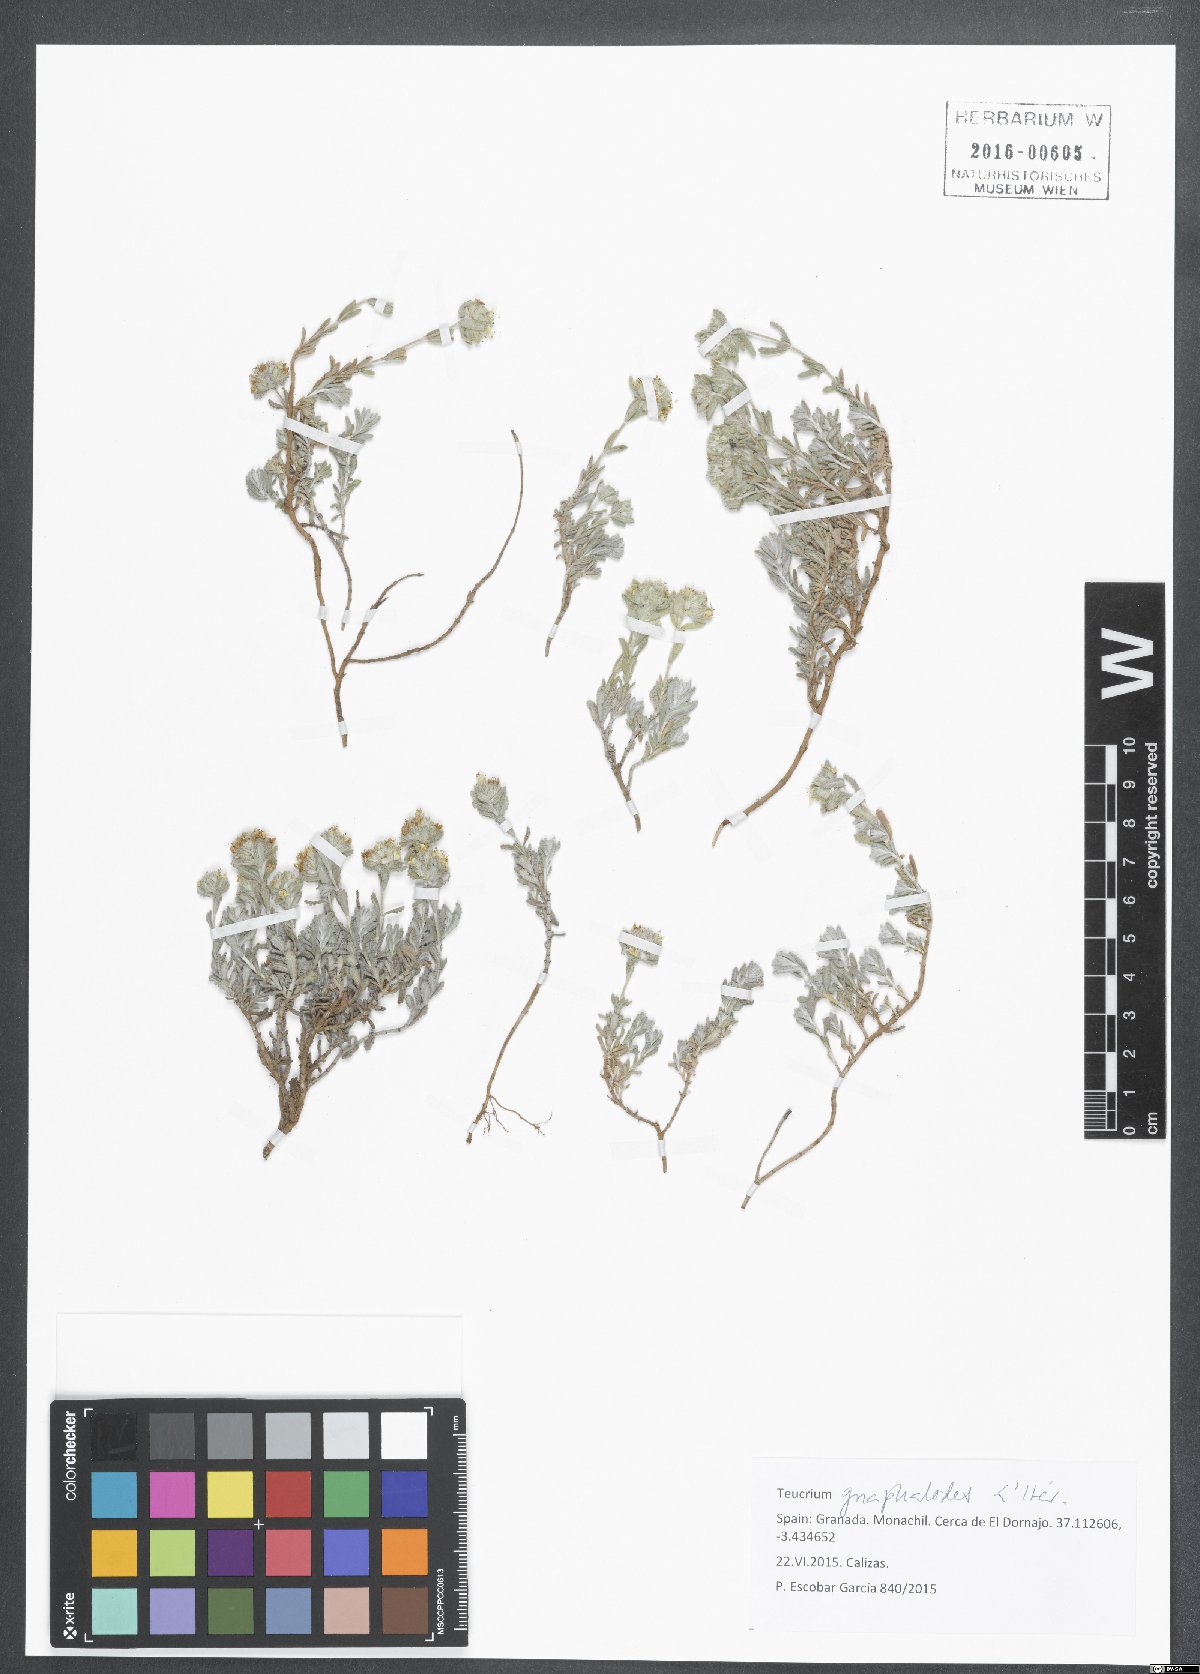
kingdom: Plantae
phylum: Tracheophyta
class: Magnoliopsida
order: Lamiales
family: Lamiaceae
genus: Teucrium
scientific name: Teucrium gnaphalodes
